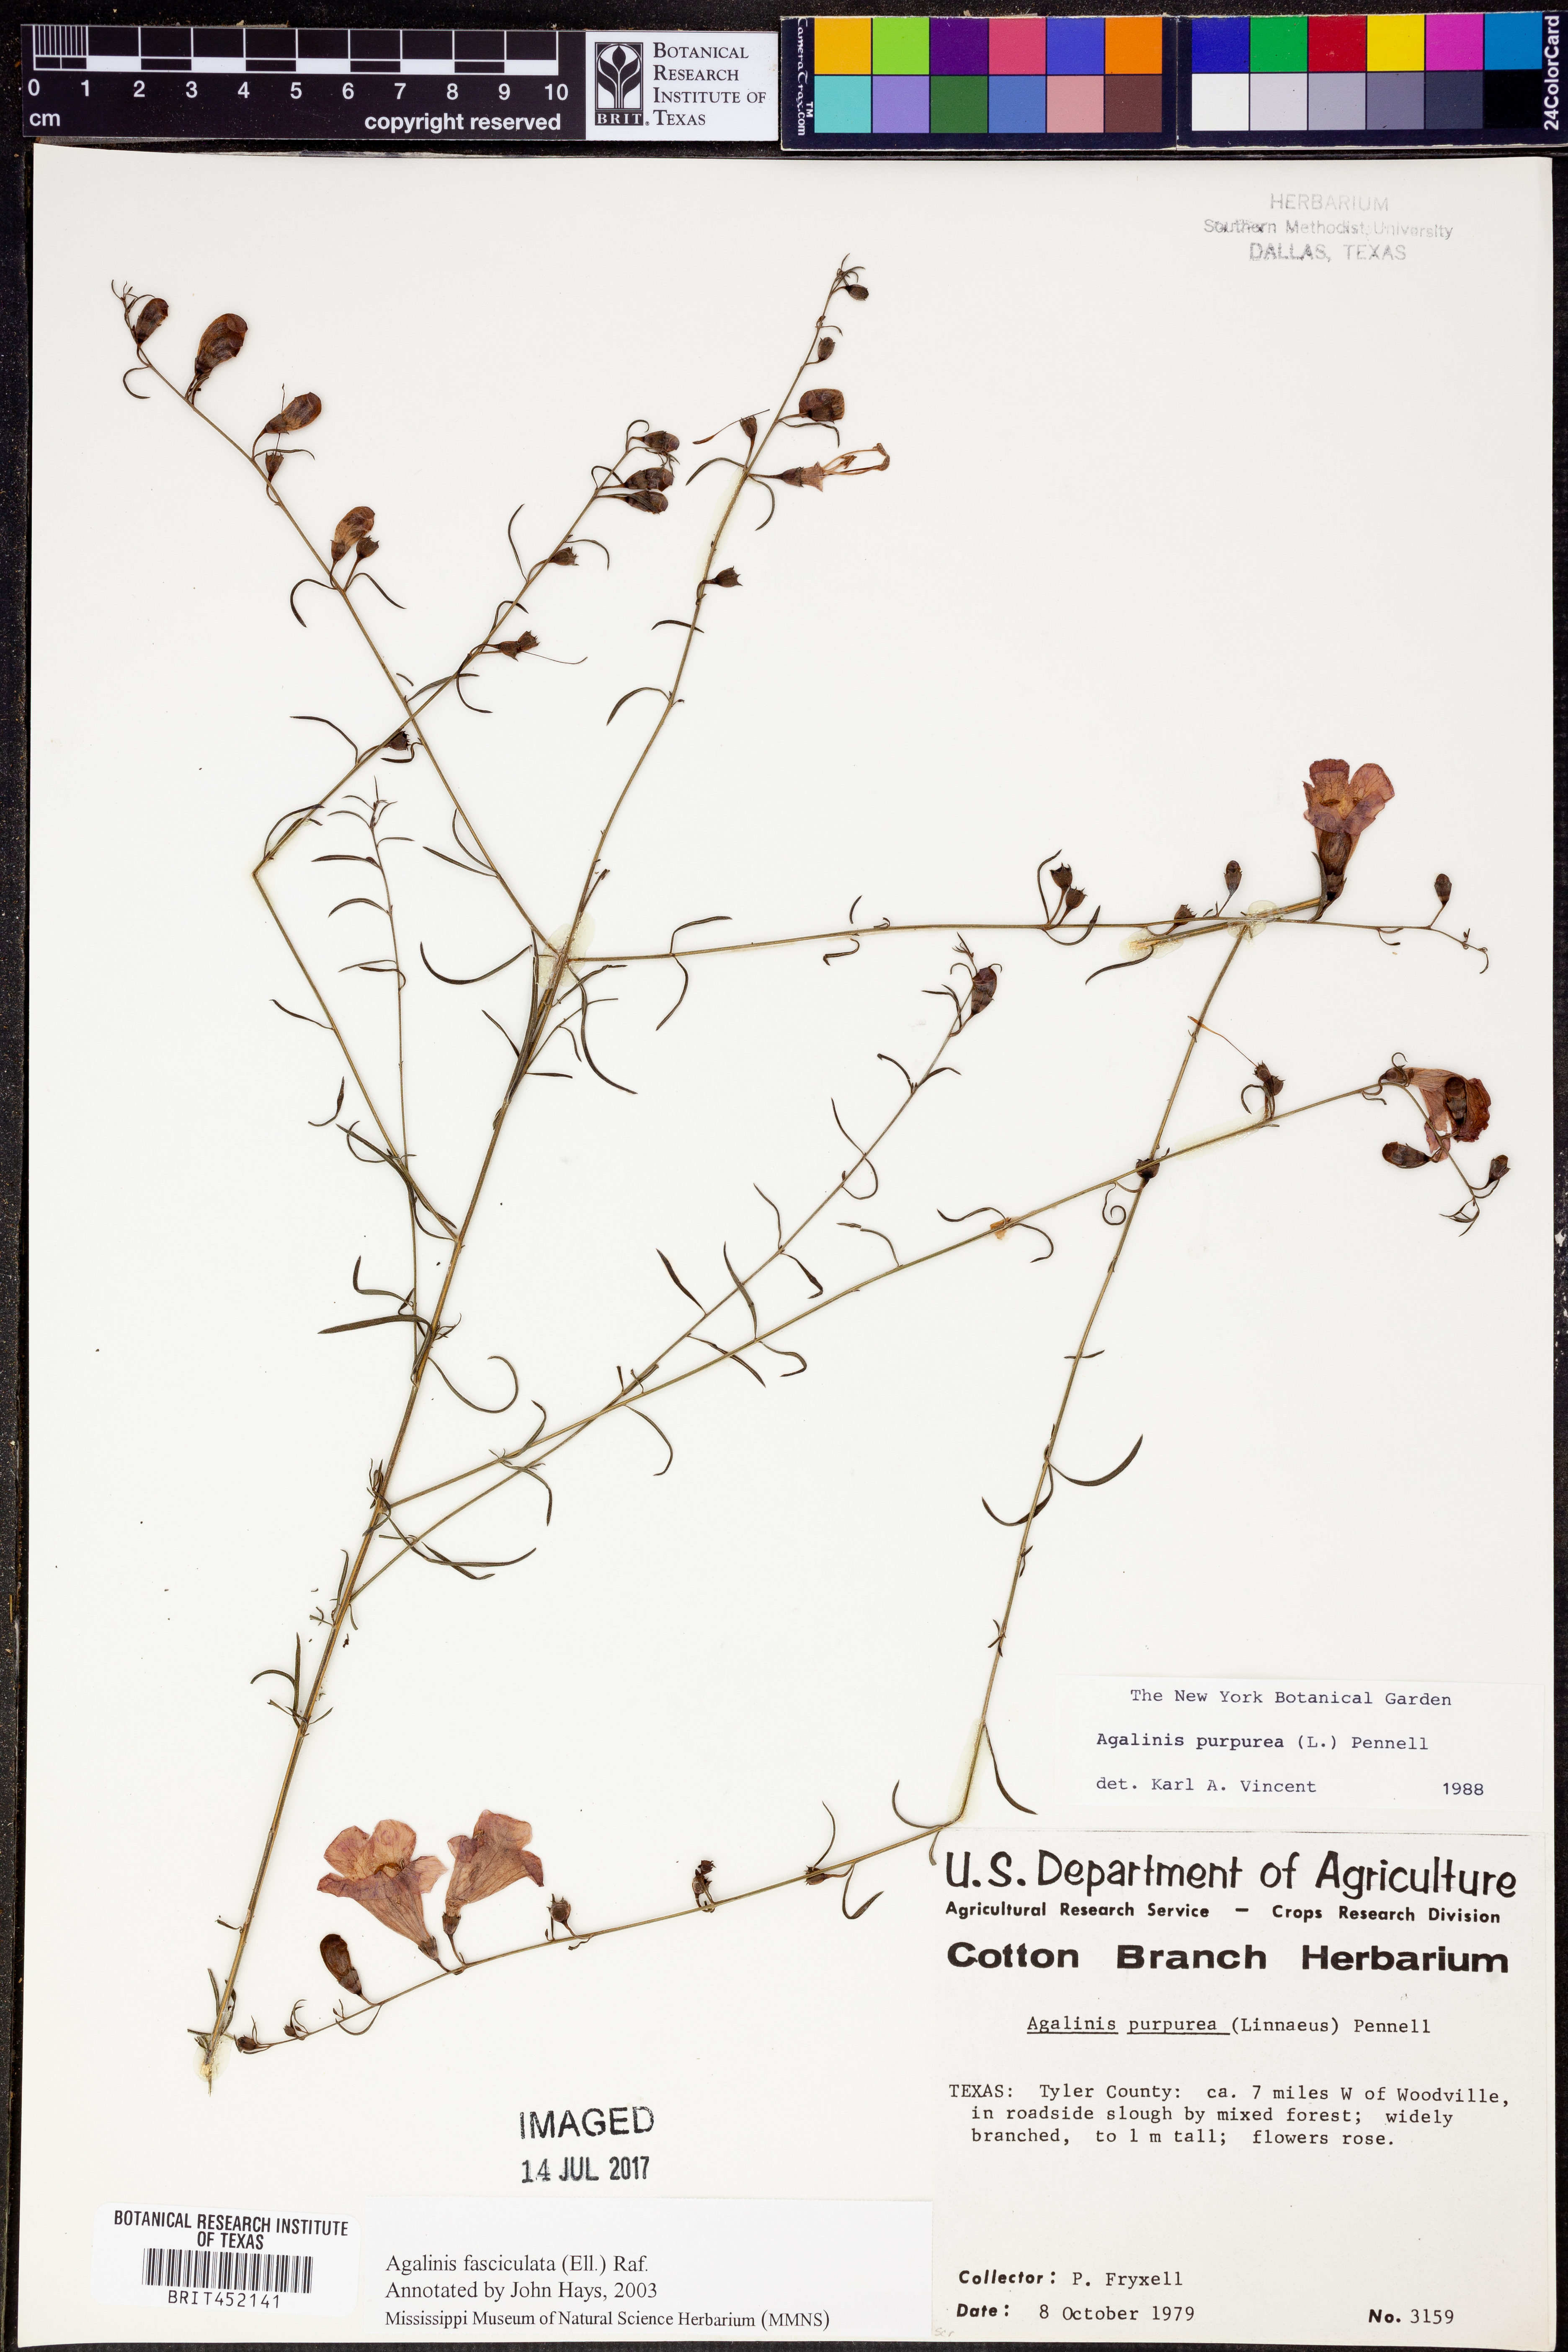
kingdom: Plantae
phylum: Tracheophyta
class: Magnoliopsida
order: Lamiales
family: Orobanchaceae
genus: Agalinis
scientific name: Agalinis purpurea
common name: Purple false foxglove
